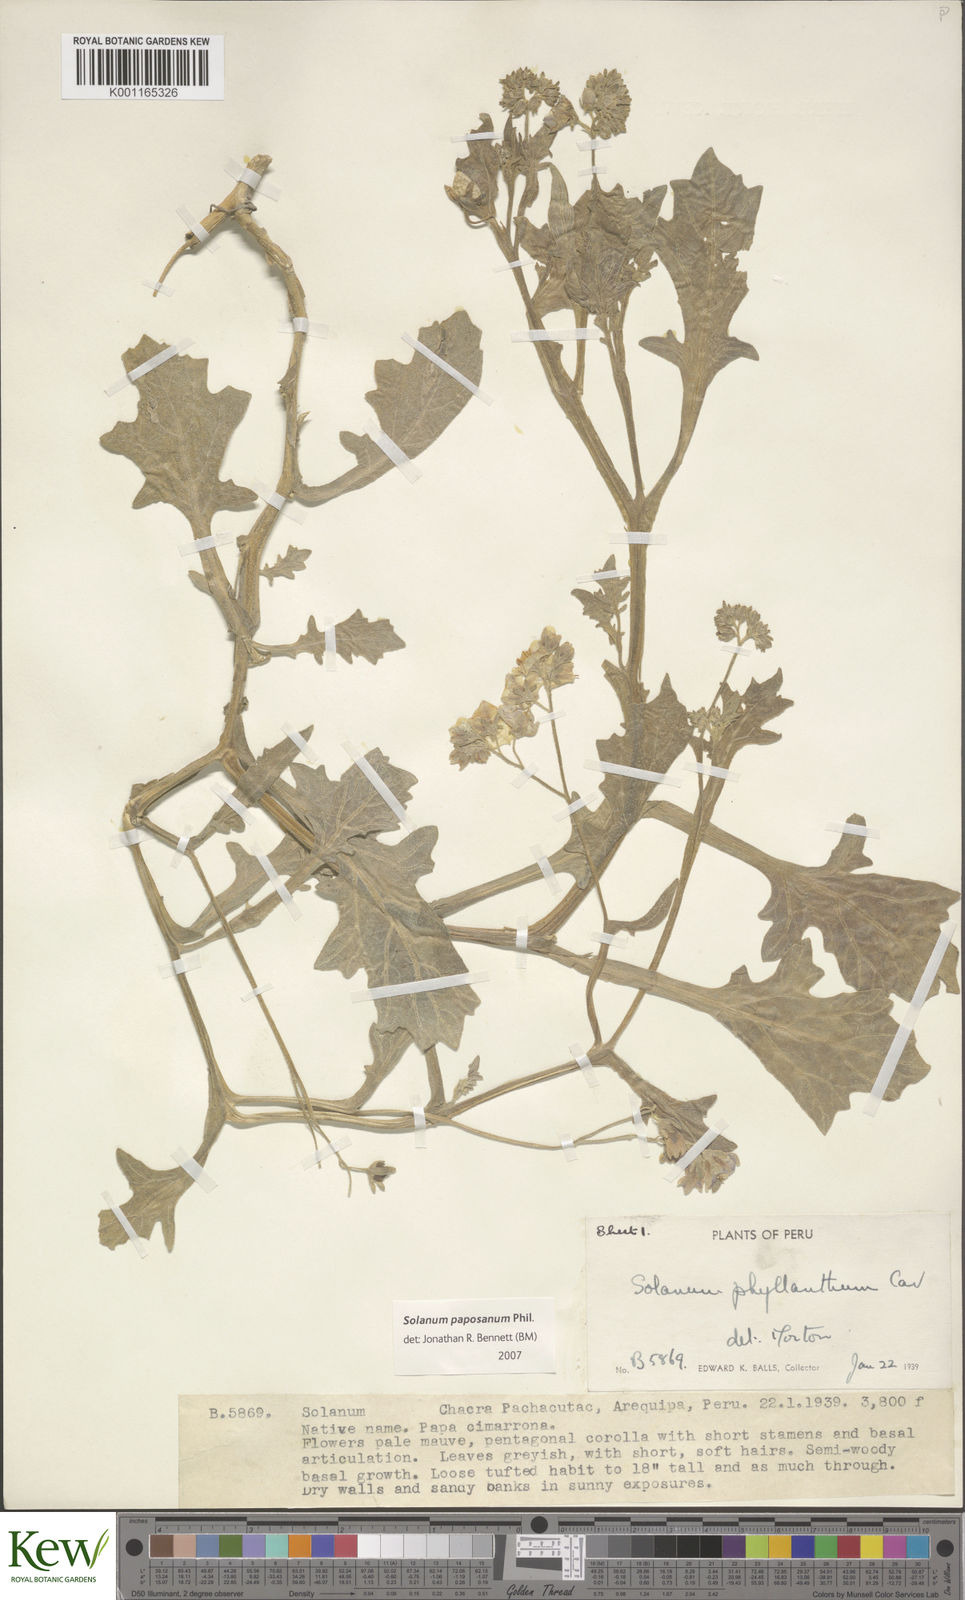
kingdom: Plantae
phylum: Tracheophyta
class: Magnoliopsida
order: Solanales
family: Solanaceae
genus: Solanum
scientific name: Solanum paposanum
